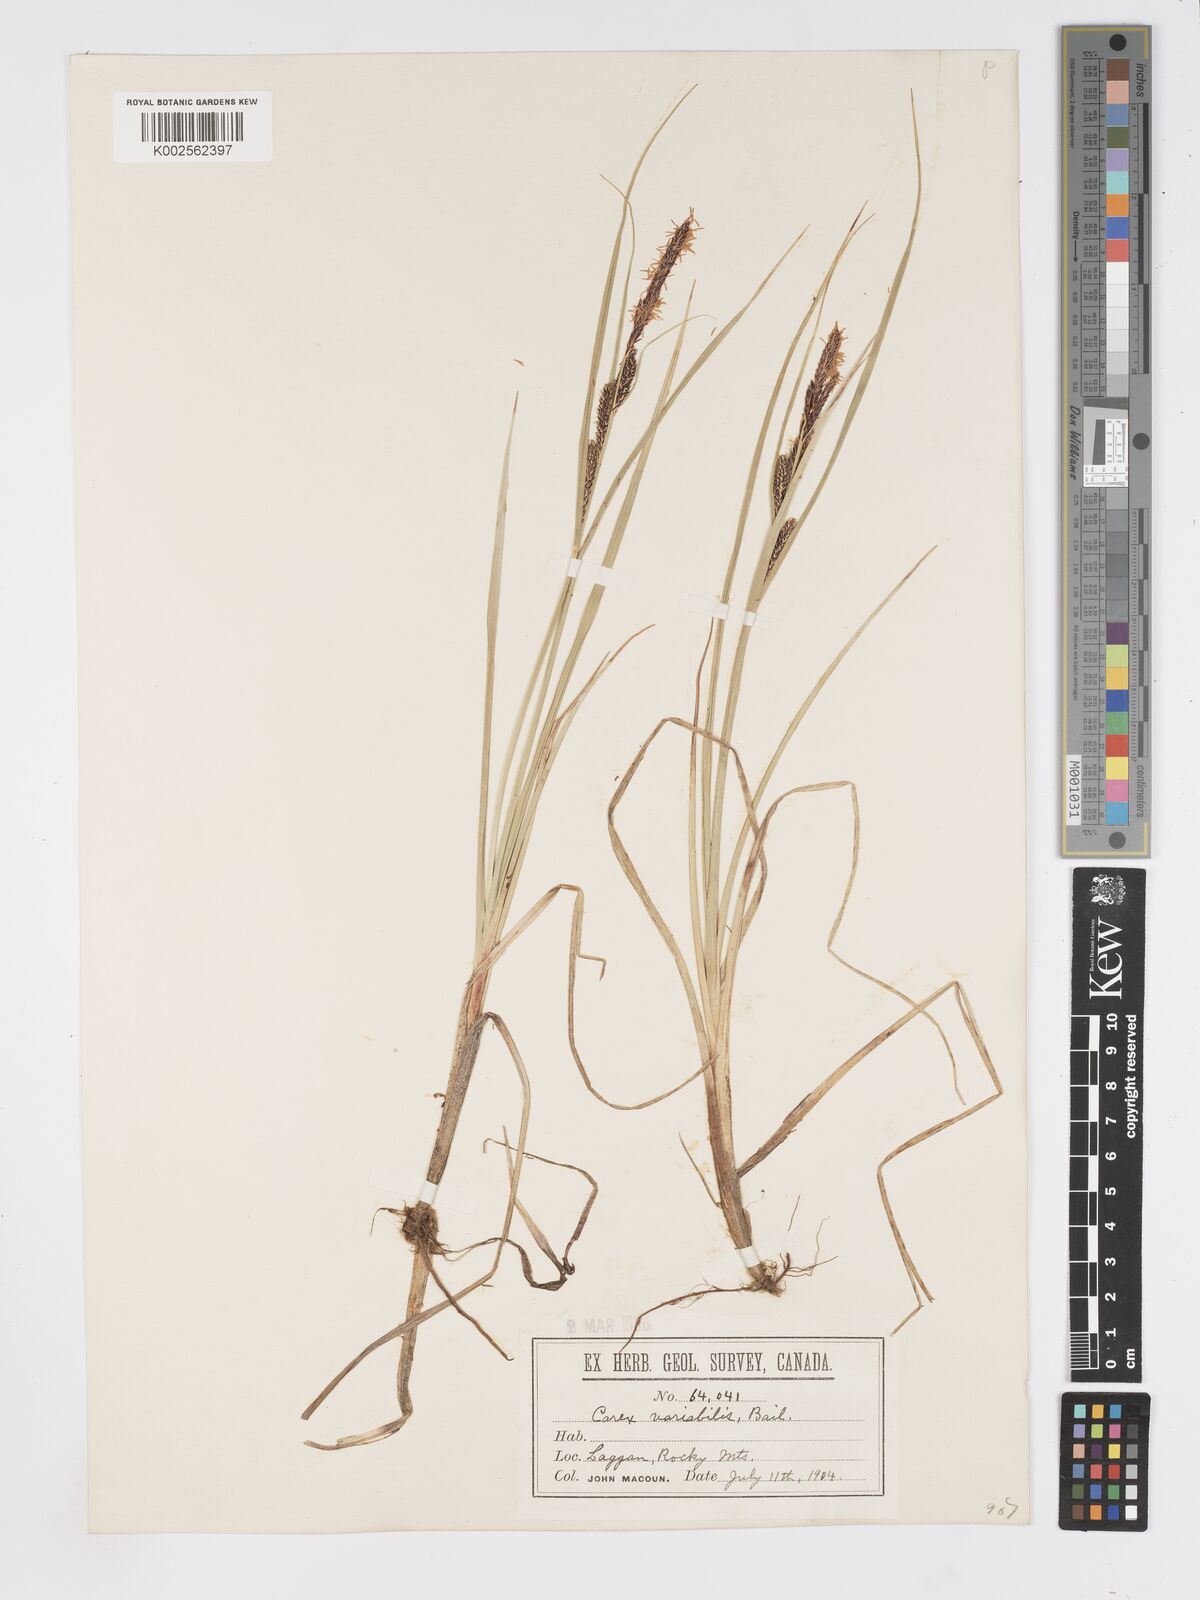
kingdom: Plantae
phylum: Tracheophyta
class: Liliopsida
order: Poales
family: Cyperaceae
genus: Carex
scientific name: Carex aquatilis
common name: Water sedge
